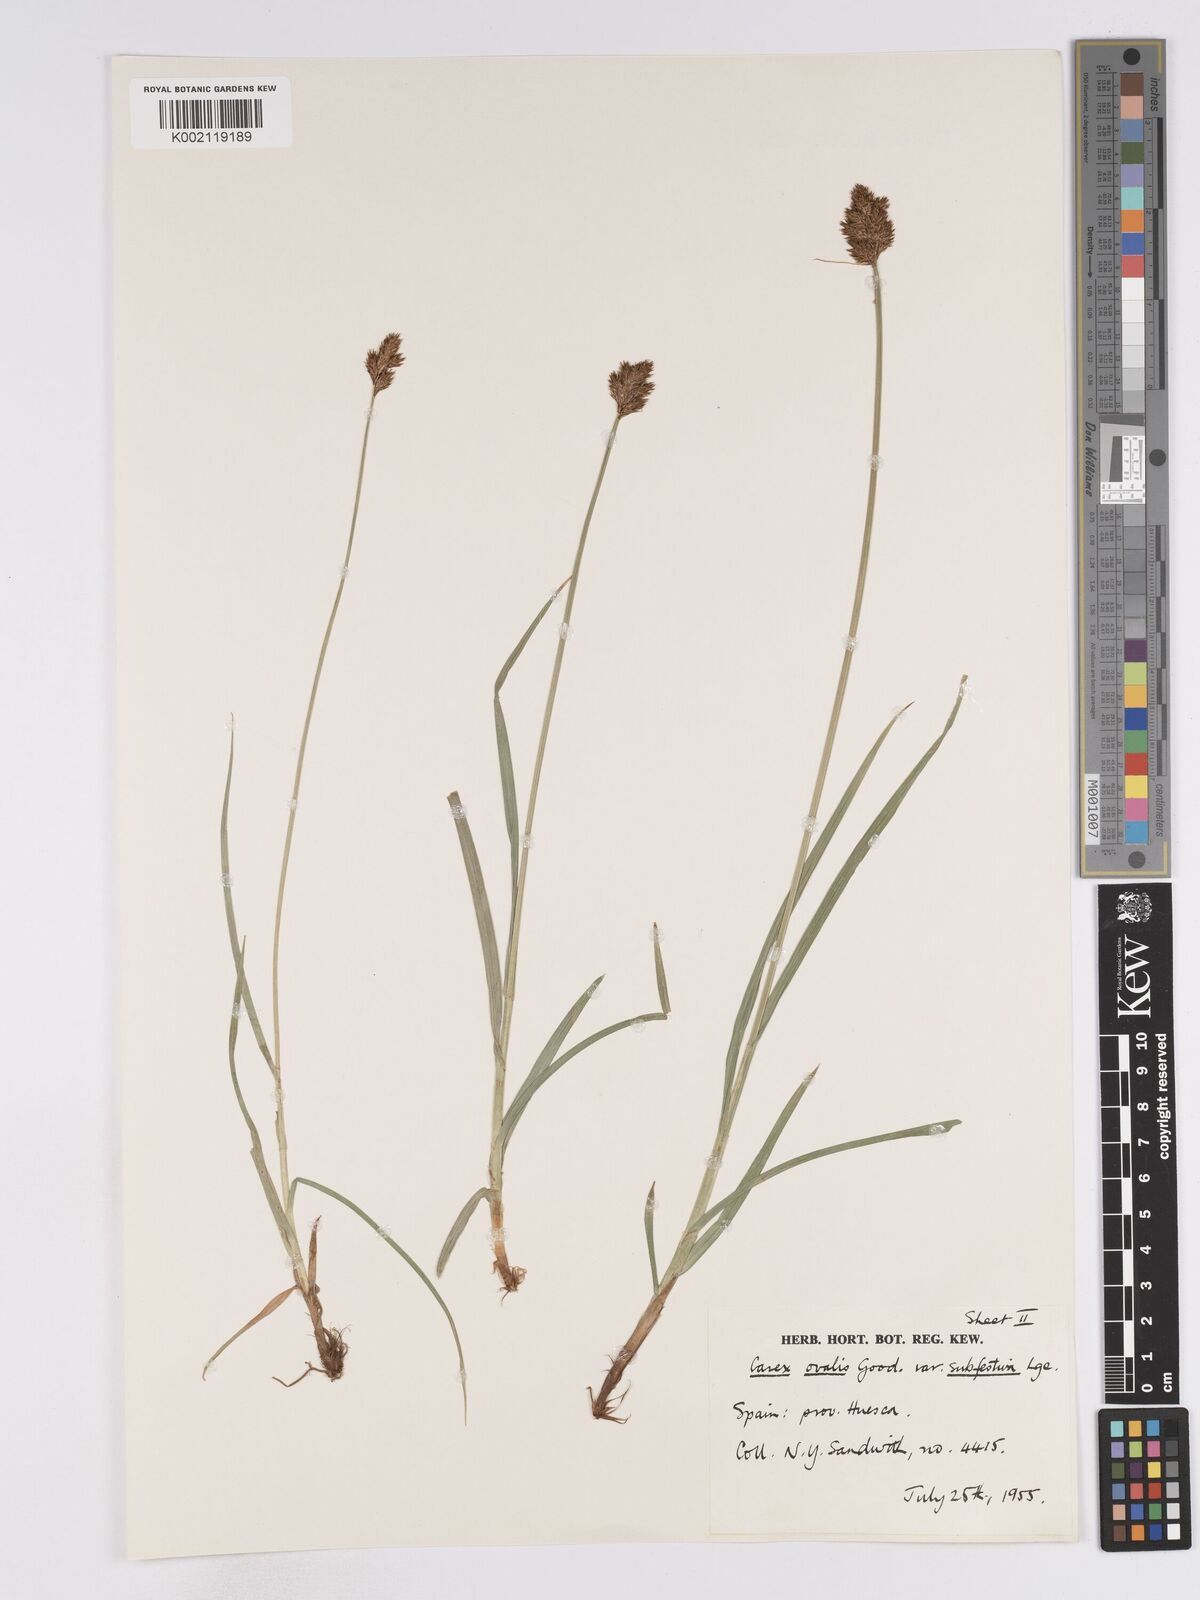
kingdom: Plantae
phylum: Tracheophyta
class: Liliopsida
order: Poales
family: Cyperaceae
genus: Carex
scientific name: Carex leporina
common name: Oval sedge
